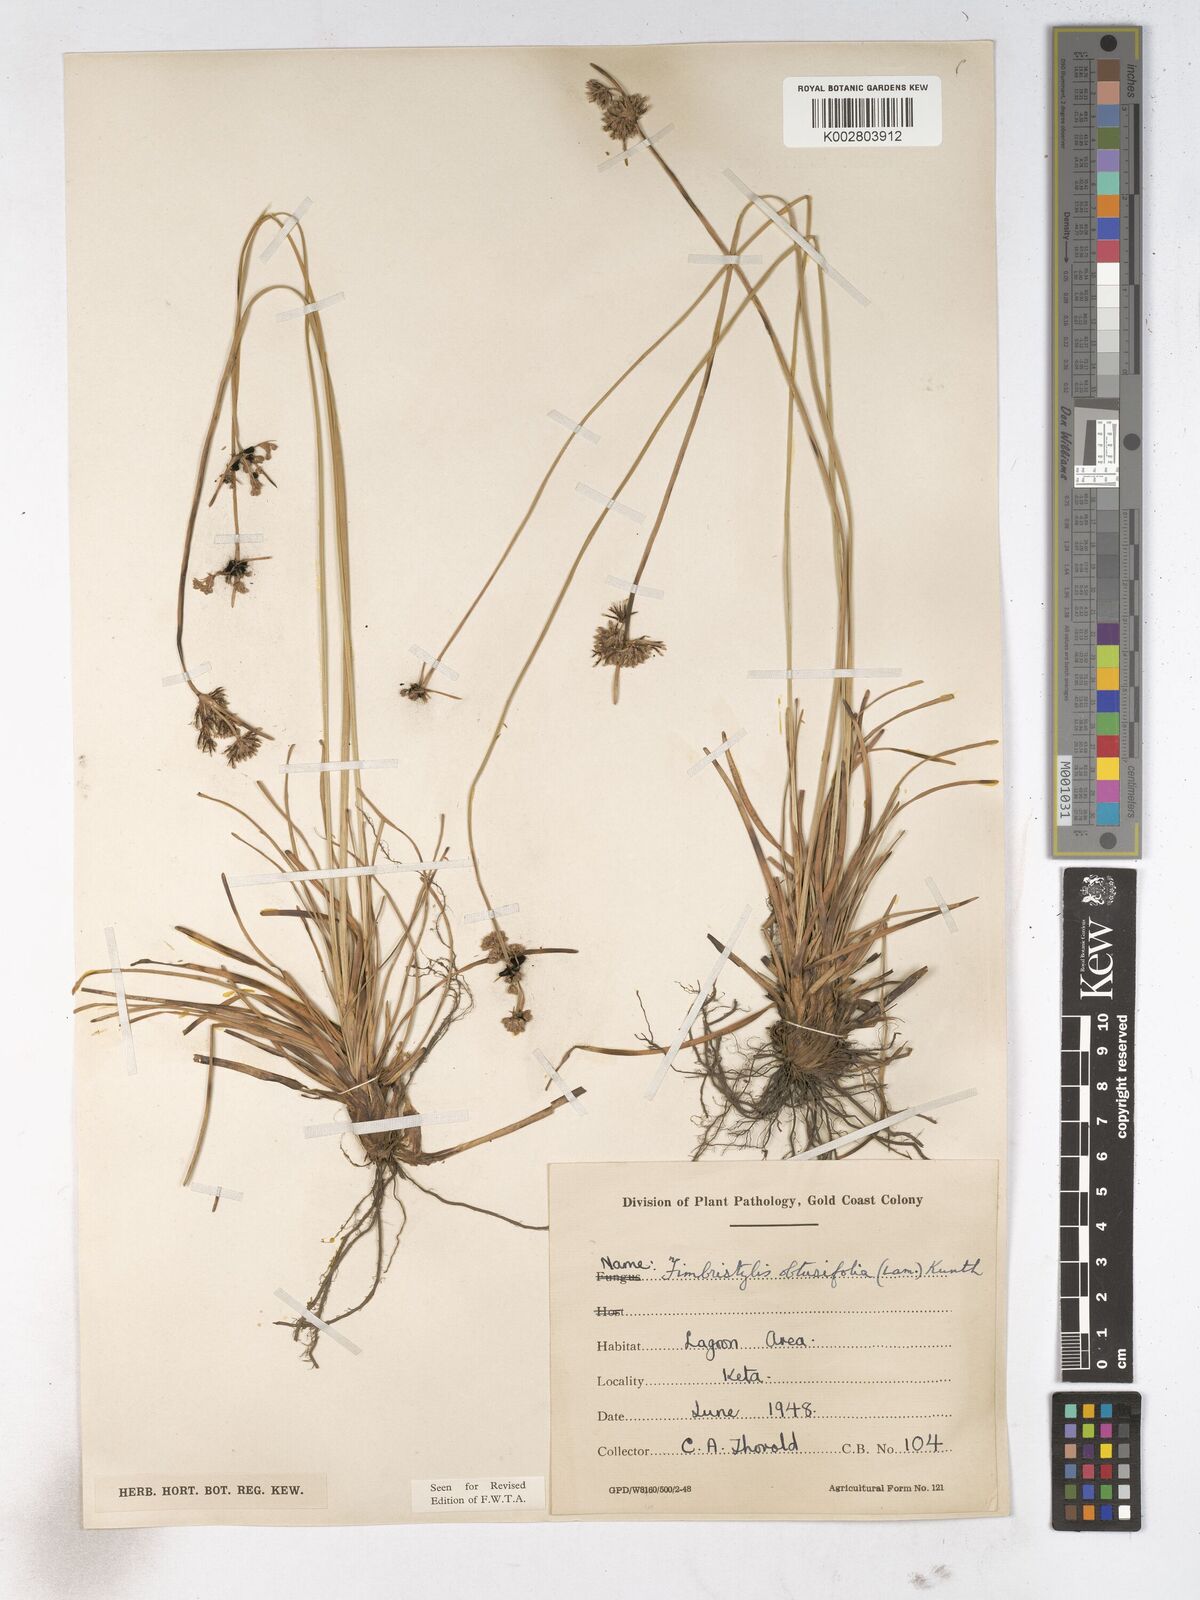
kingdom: Plantae
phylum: Tracheophyta
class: Liliopsida
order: Poales
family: Cyperaceae
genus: Fimbristylis
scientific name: Fimbristylis cymosa
